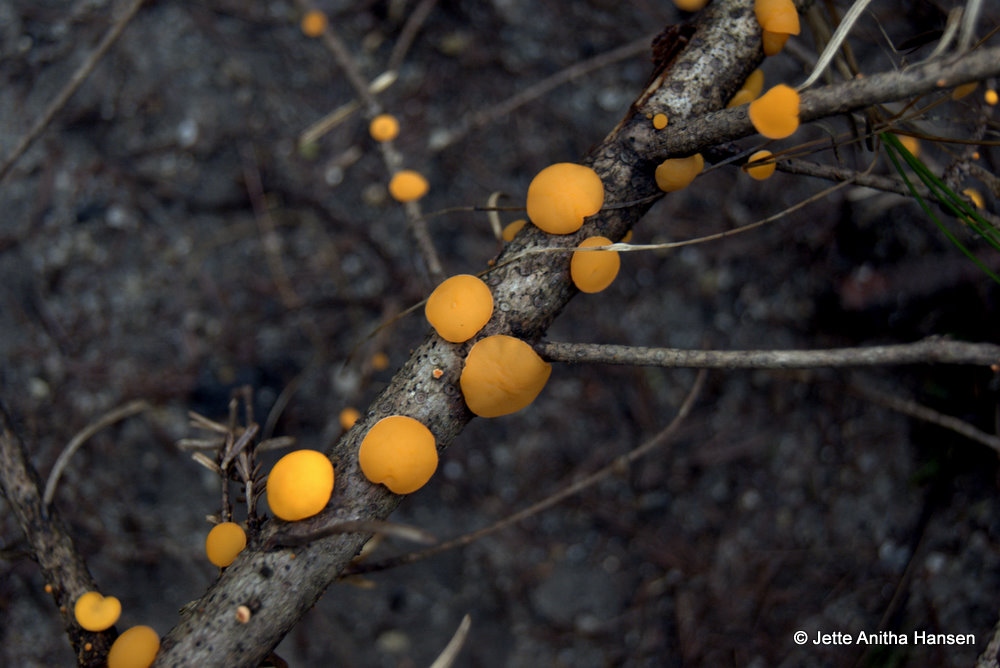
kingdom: Fungi
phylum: Ascomycota
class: Pezizomycetes
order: Pezizales
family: Sarcoscyphaceae
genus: Pithya
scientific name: Pithya vulgaris
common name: stor dukatbæger
